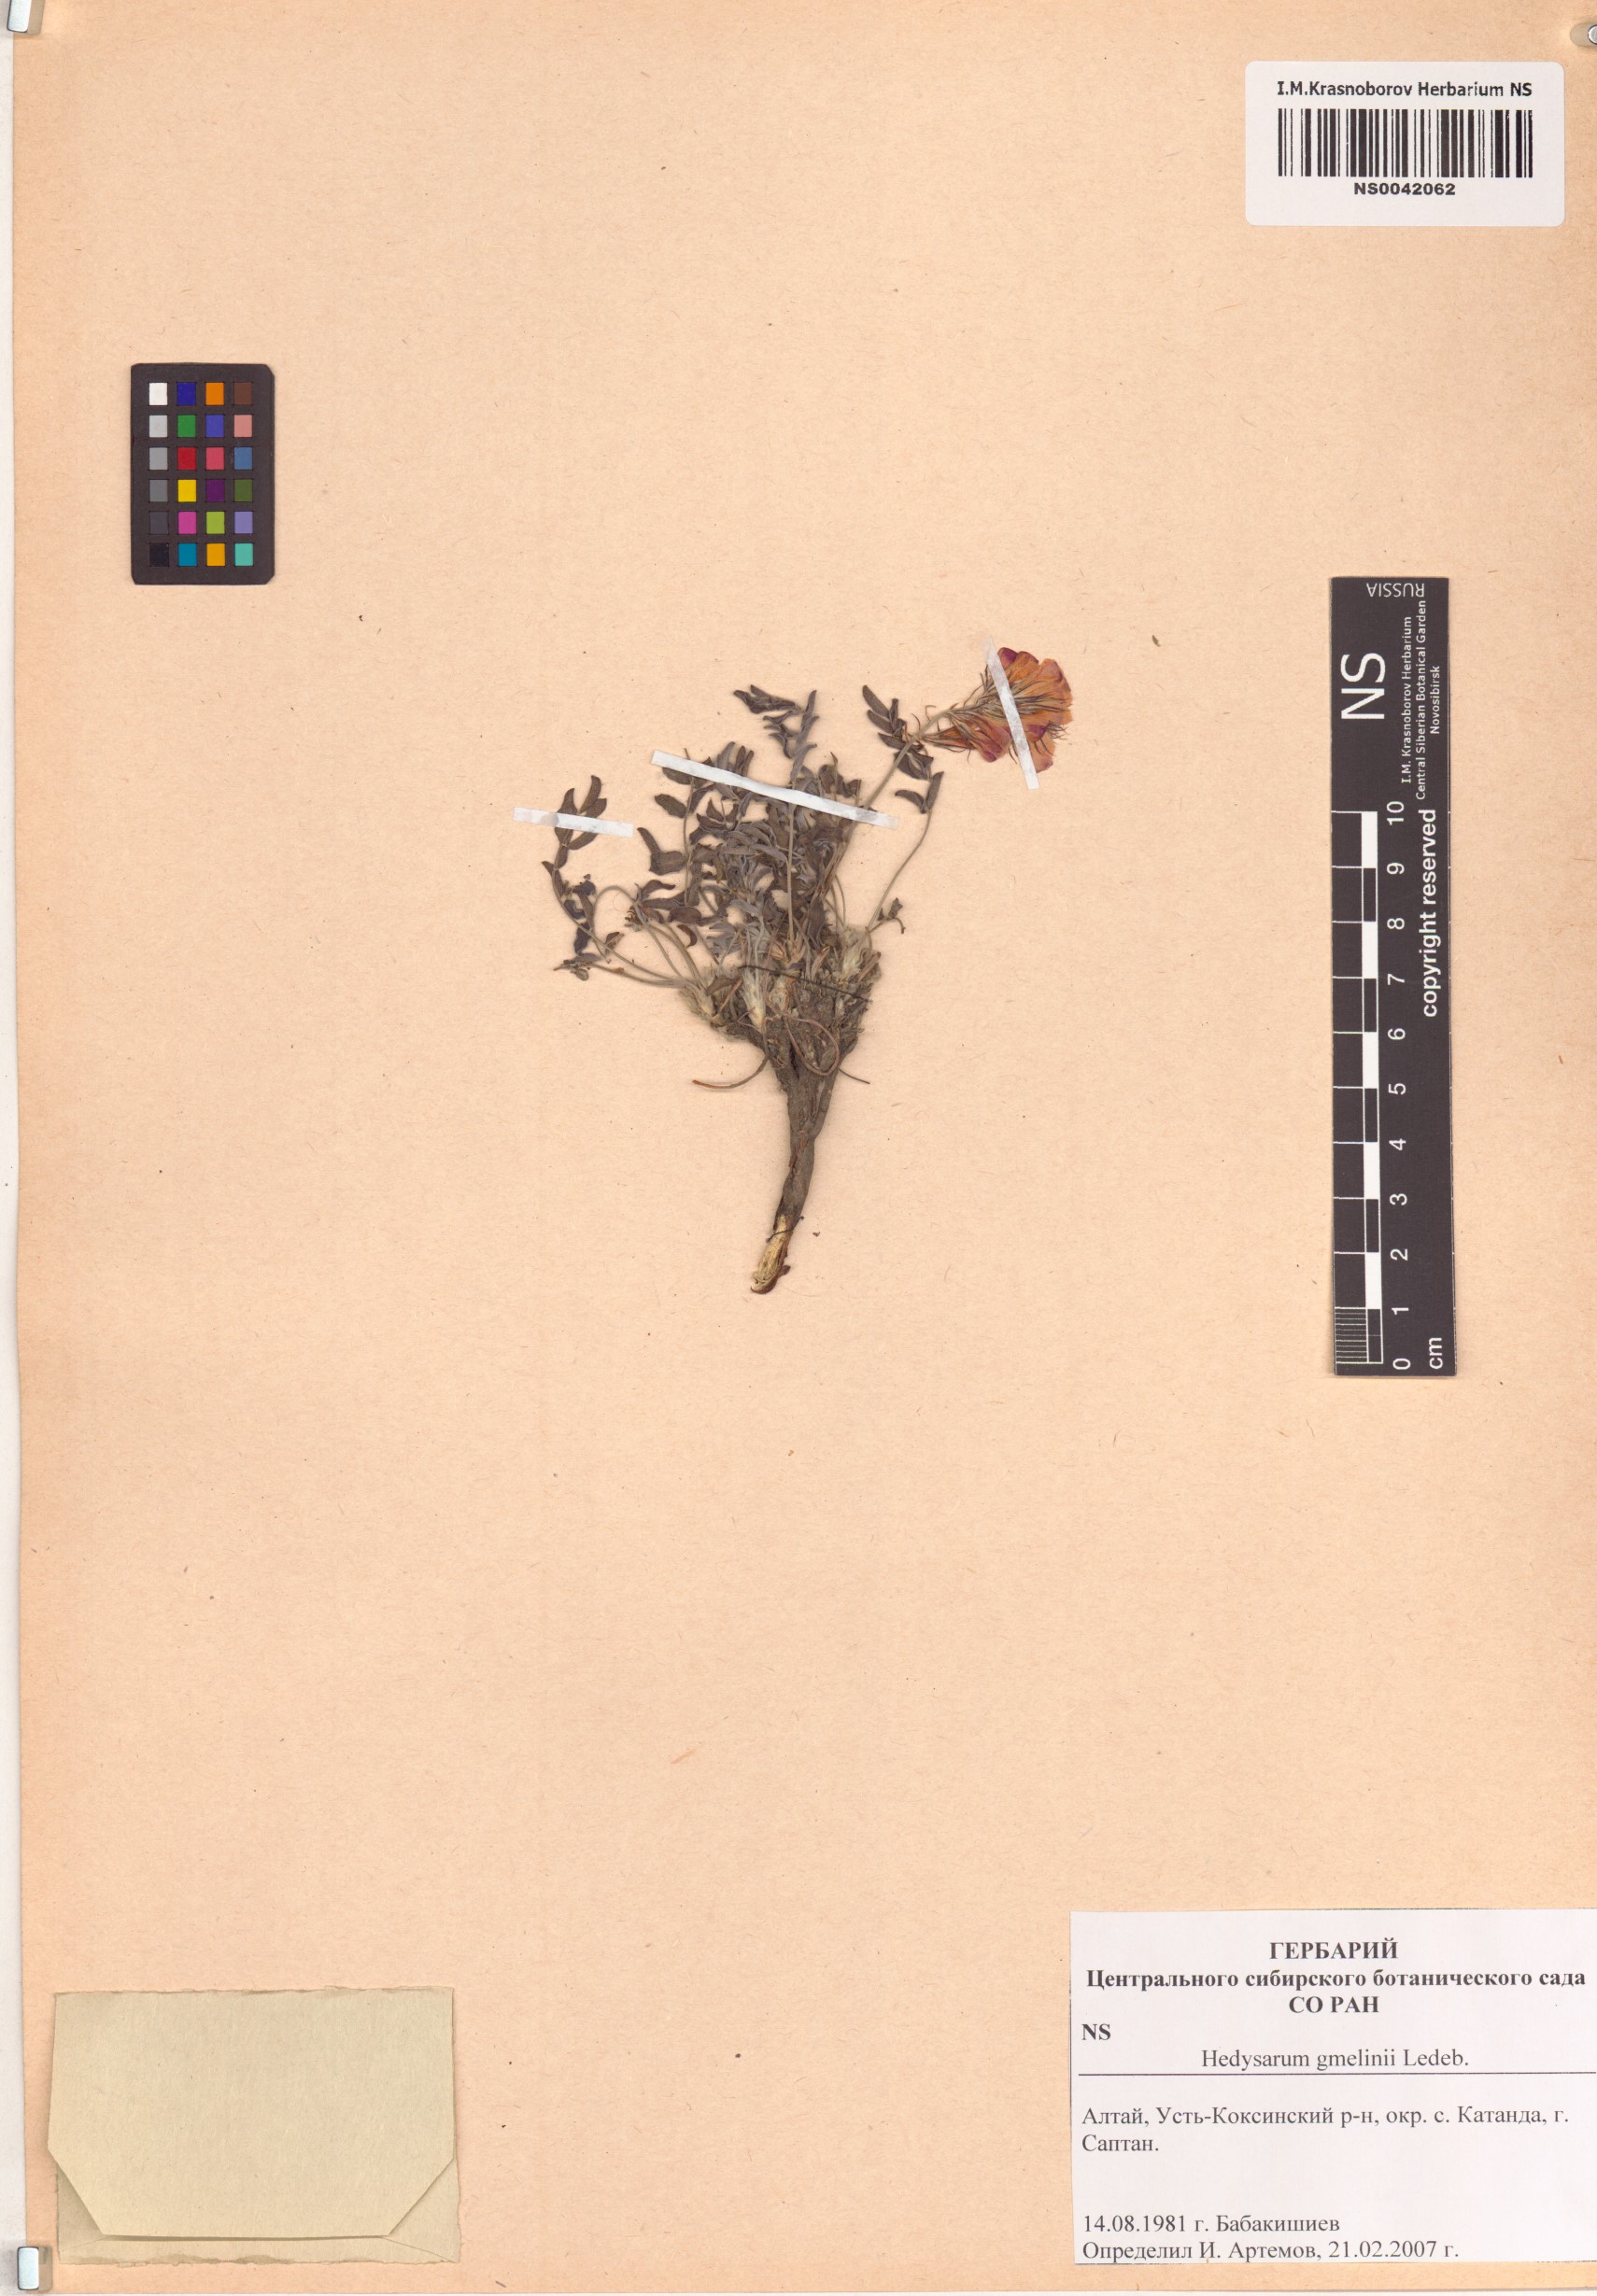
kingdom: Plantae
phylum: Tracheophyta
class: Magnoliopsida
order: Fabales
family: Fabaceae
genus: Hedysarum
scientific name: Hedysarum gmelinii
